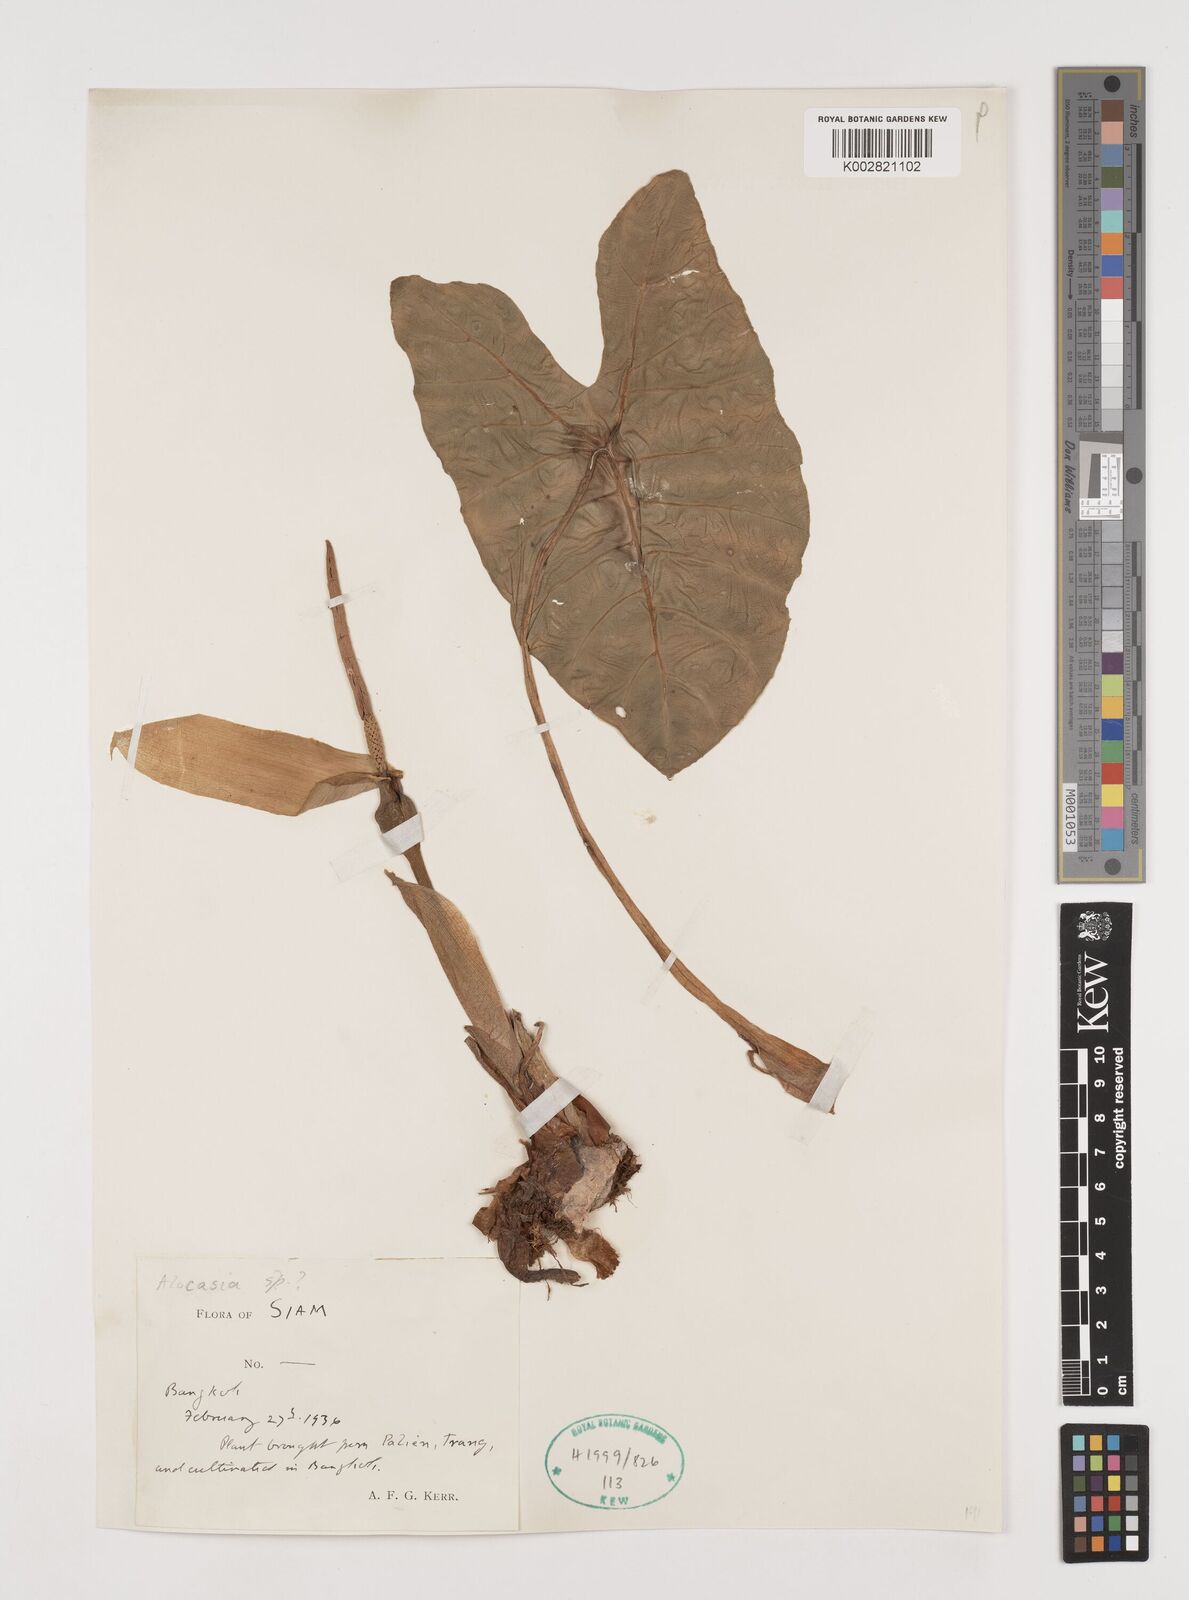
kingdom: Plantae
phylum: Tracheophyta
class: Liliopsida
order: Alismatales
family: Araceae
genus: Alocasia
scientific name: Alocasia
